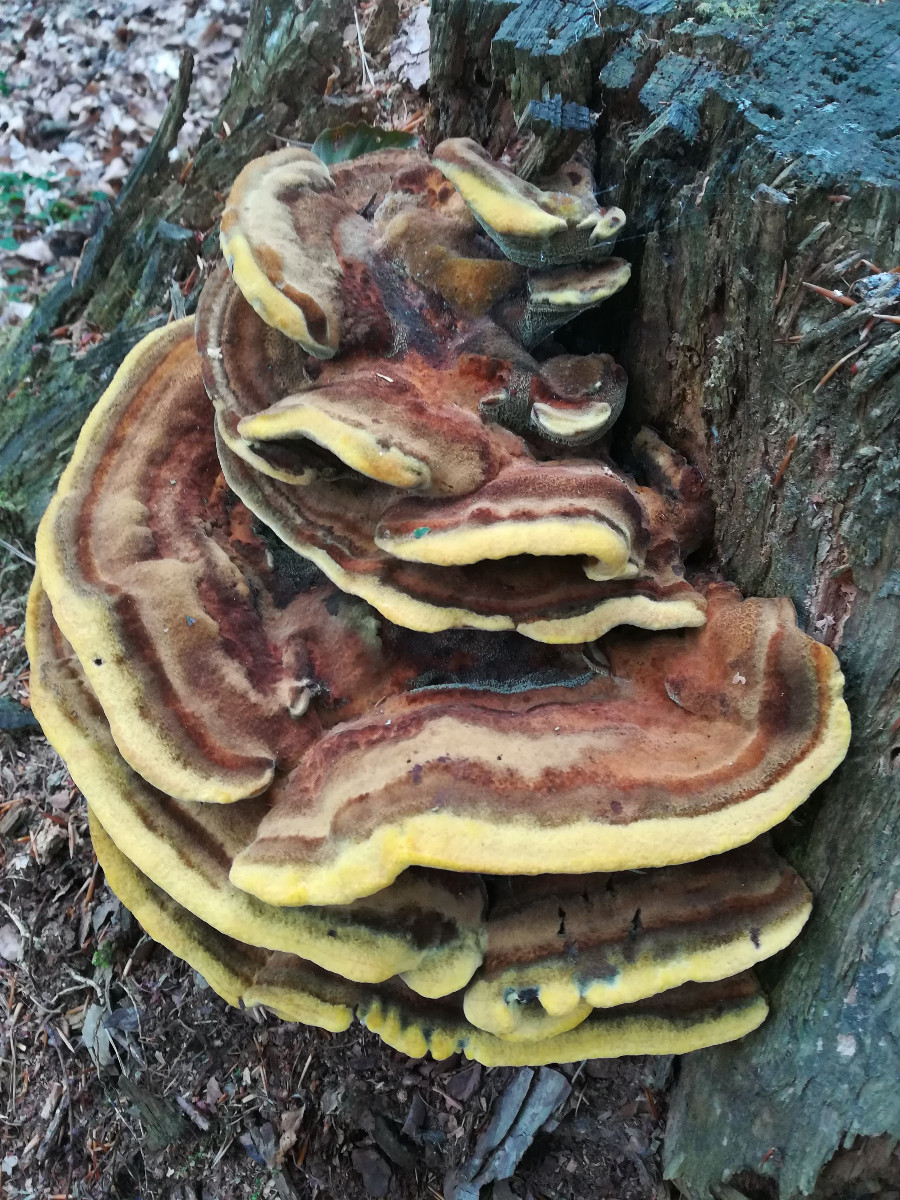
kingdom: Fungi
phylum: Basidiomycota
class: Agaricomycetes
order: Polyporales
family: Laetiporaceae
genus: Phaeolus
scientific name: Phaeolus schweinitzii
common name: brunporesvamp
